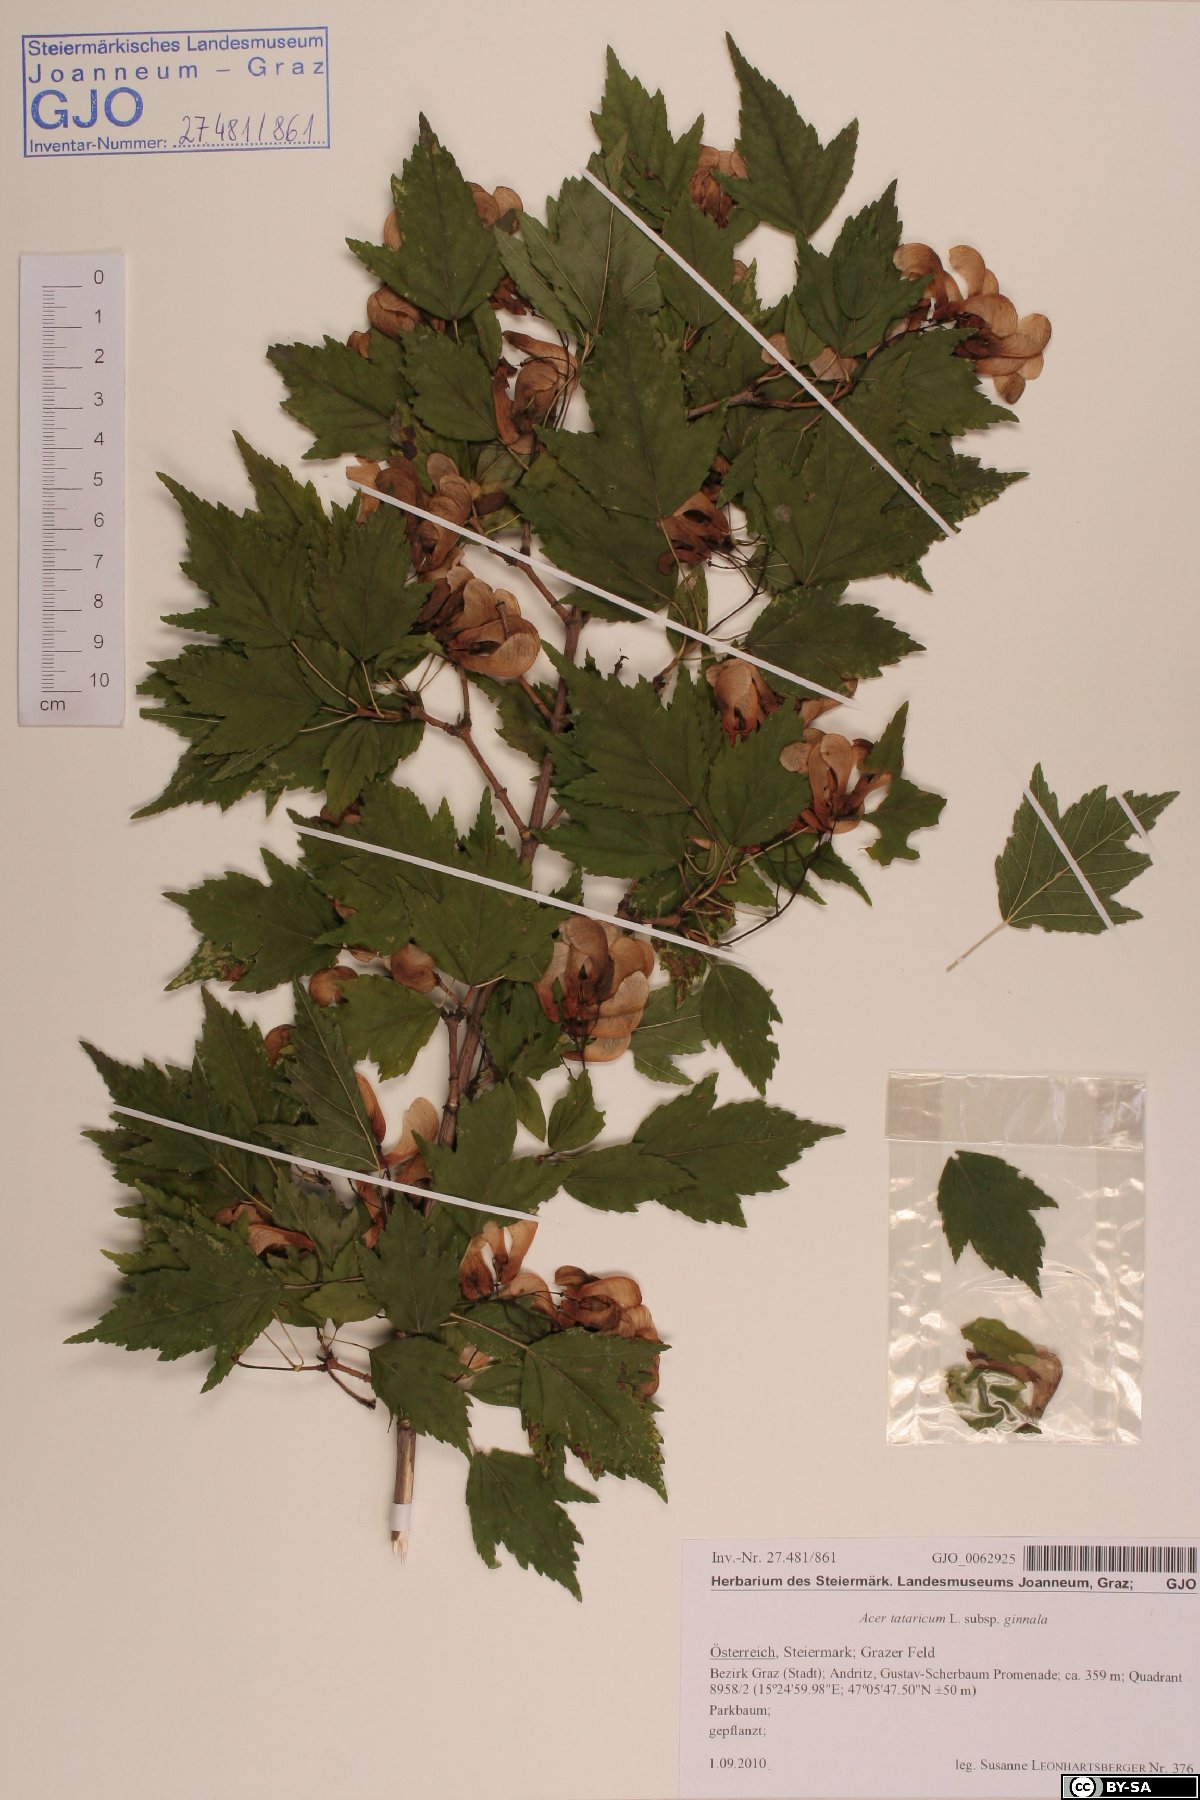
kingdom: Plantae
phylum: Tracheophyta
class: Magnoliopsida
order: Sapindales
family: Sapindaceae
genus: Acer
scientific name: Acer tataricum
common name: Tartar maple
